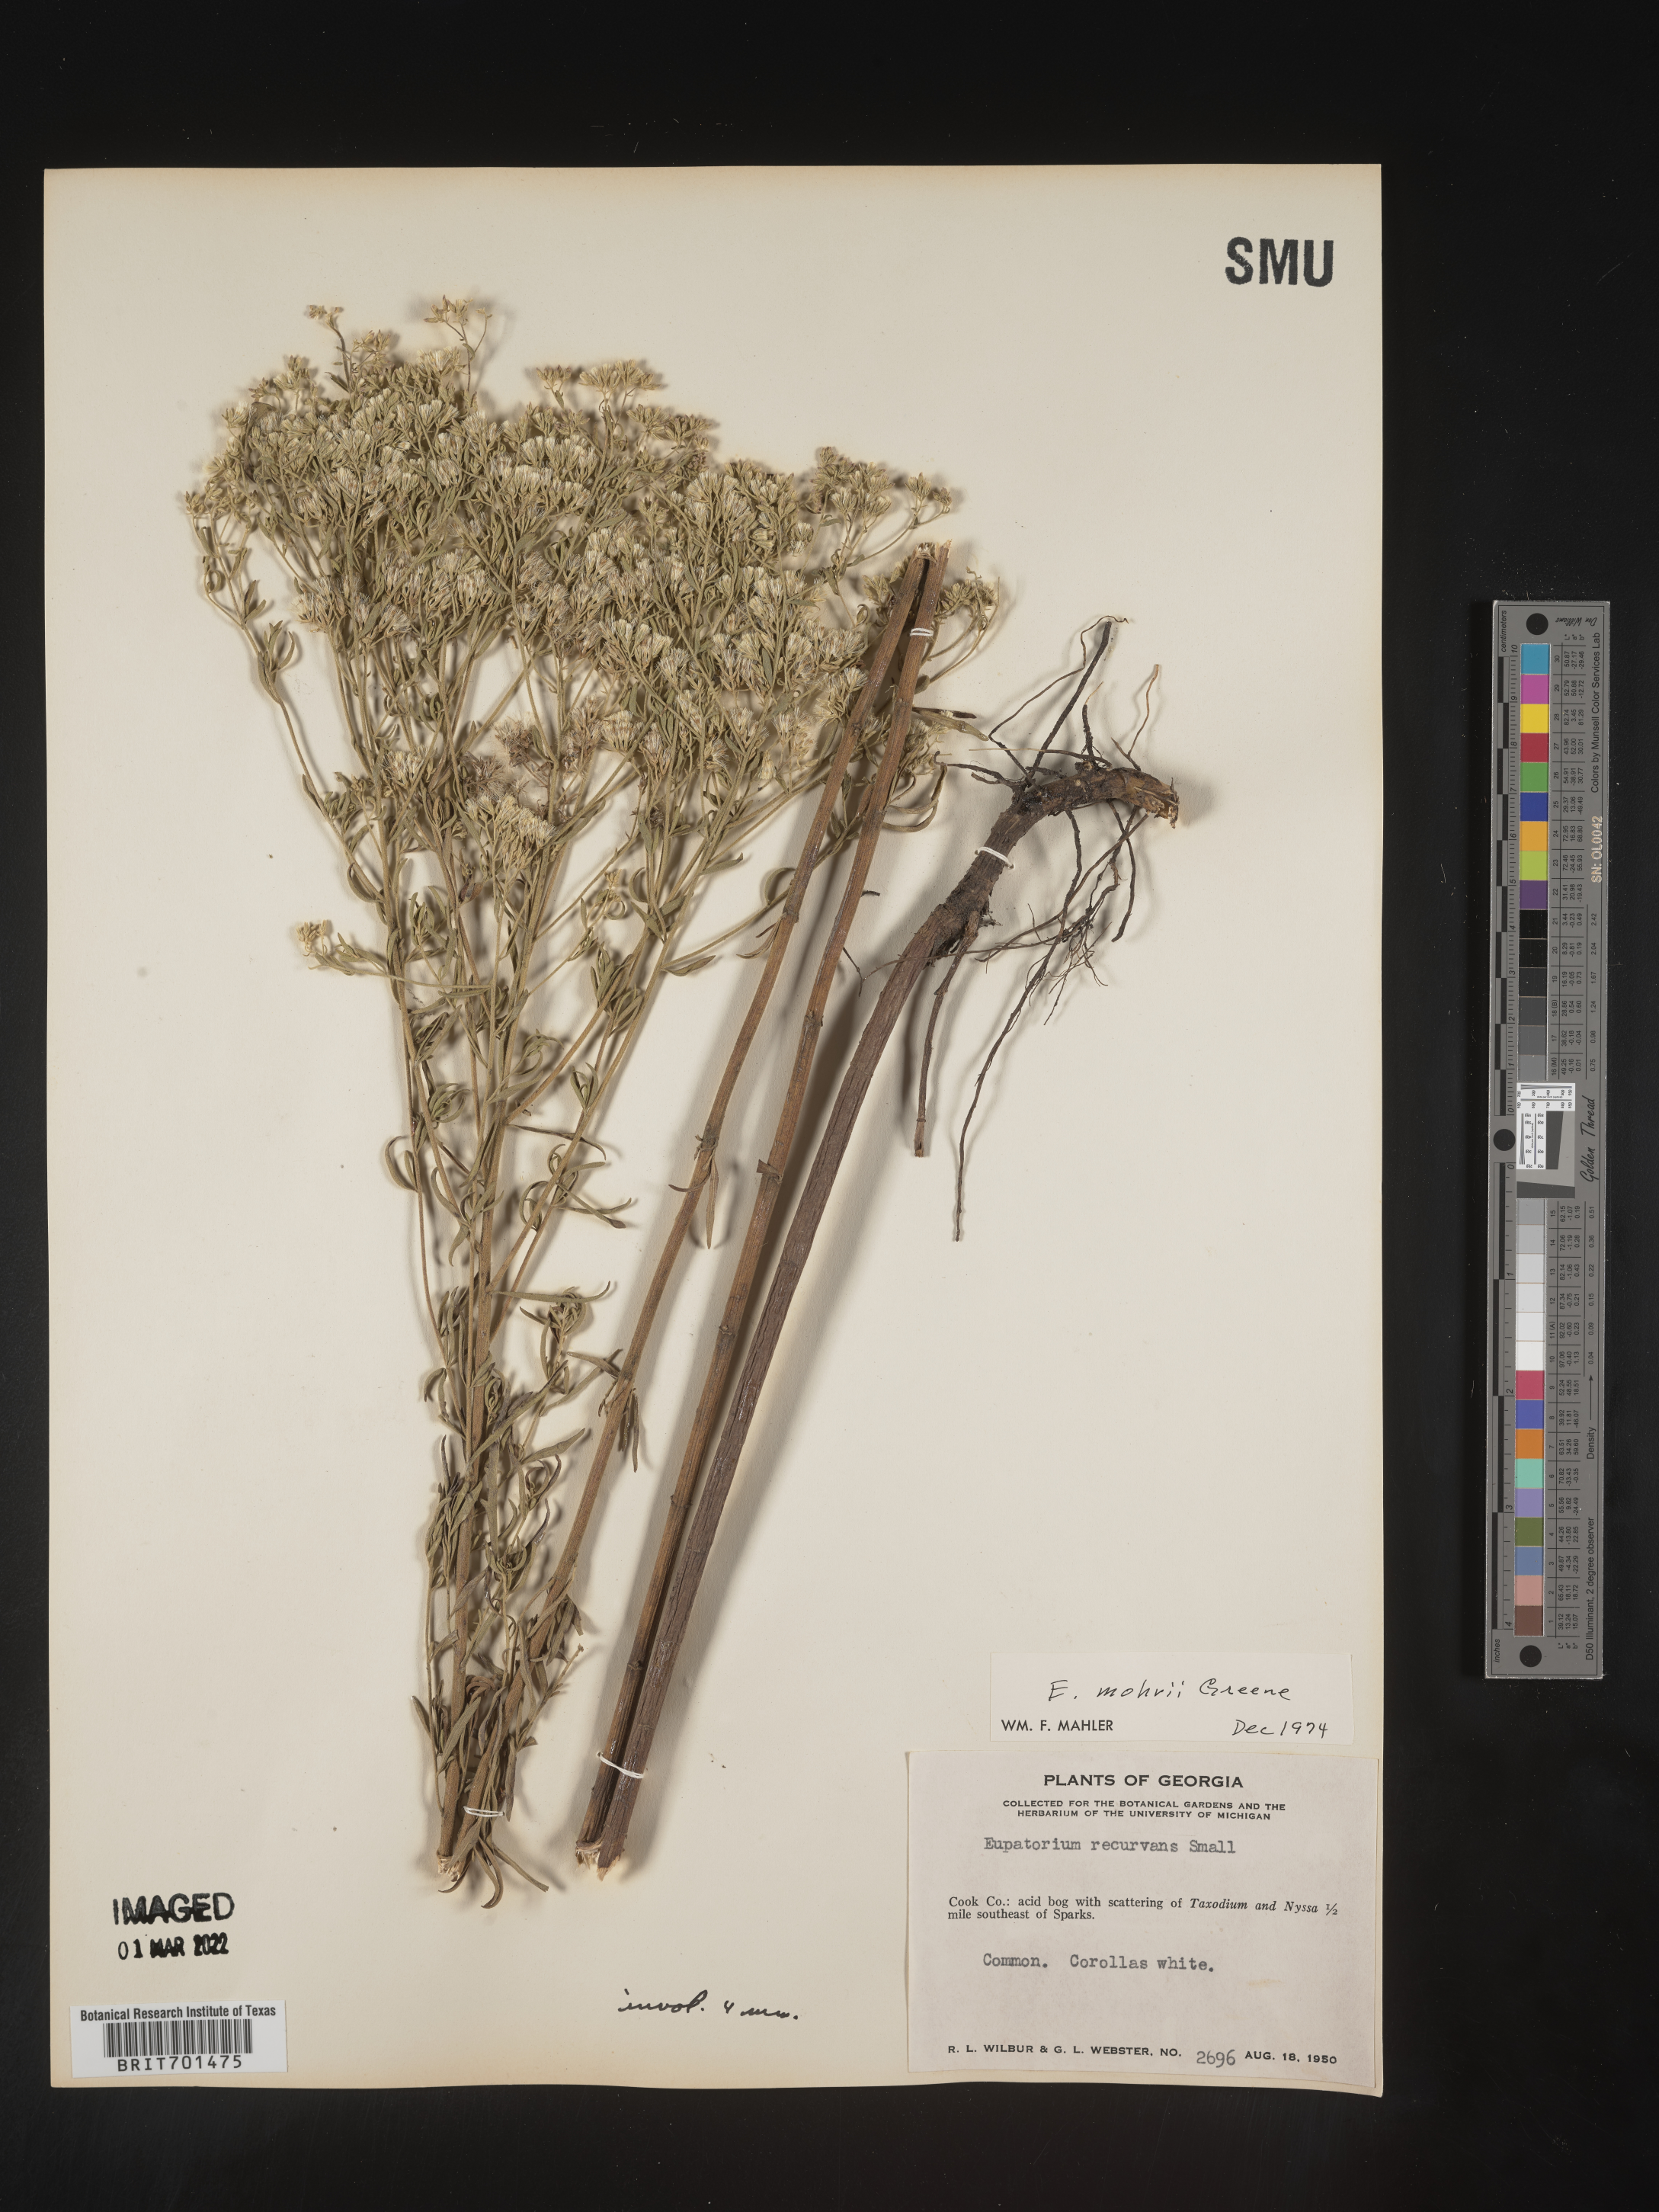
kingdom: Plantae
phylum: Tracheophyta
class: Magnoliopsida
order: Asterales
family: Asteraceae
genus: Eupatorium
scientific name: Eupatorium mohrii
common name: Mohr's thoroughwort
